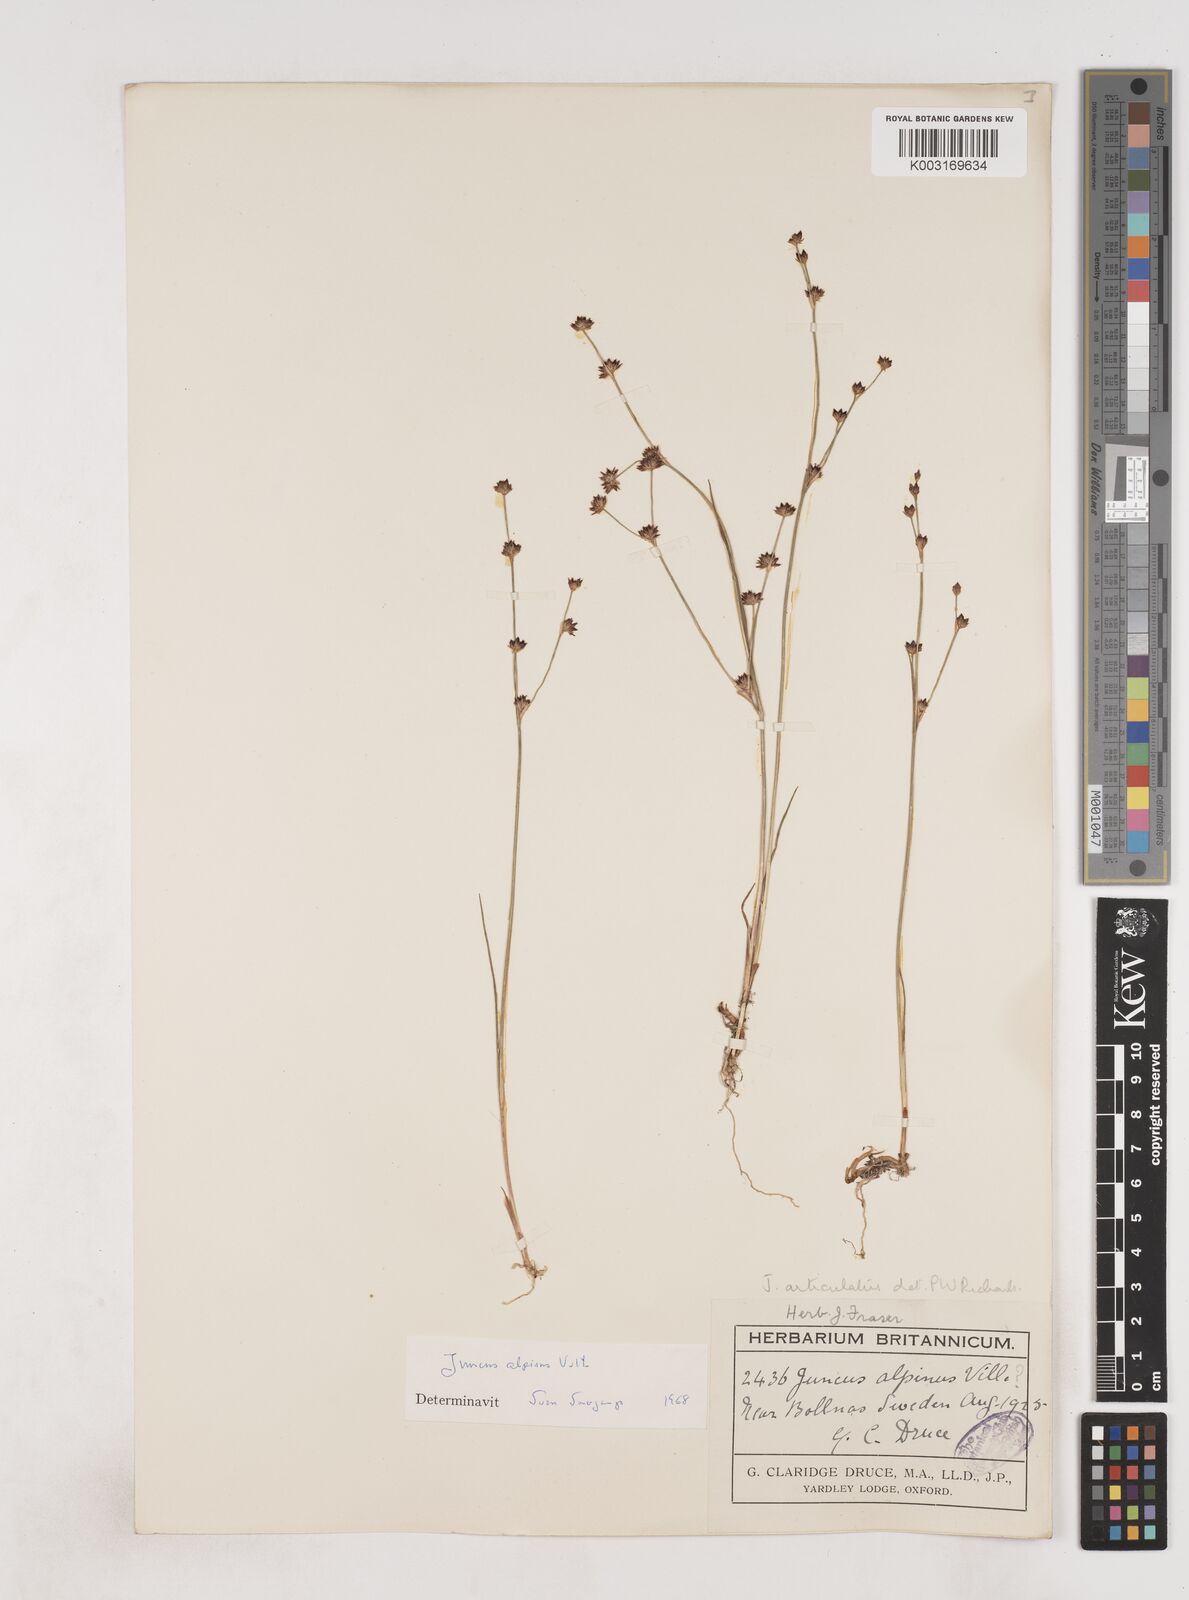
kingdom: Plantae
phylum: Tracheophyta
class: Liliopsida
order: Poales
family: Juncaceae
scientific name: Juncaceae
